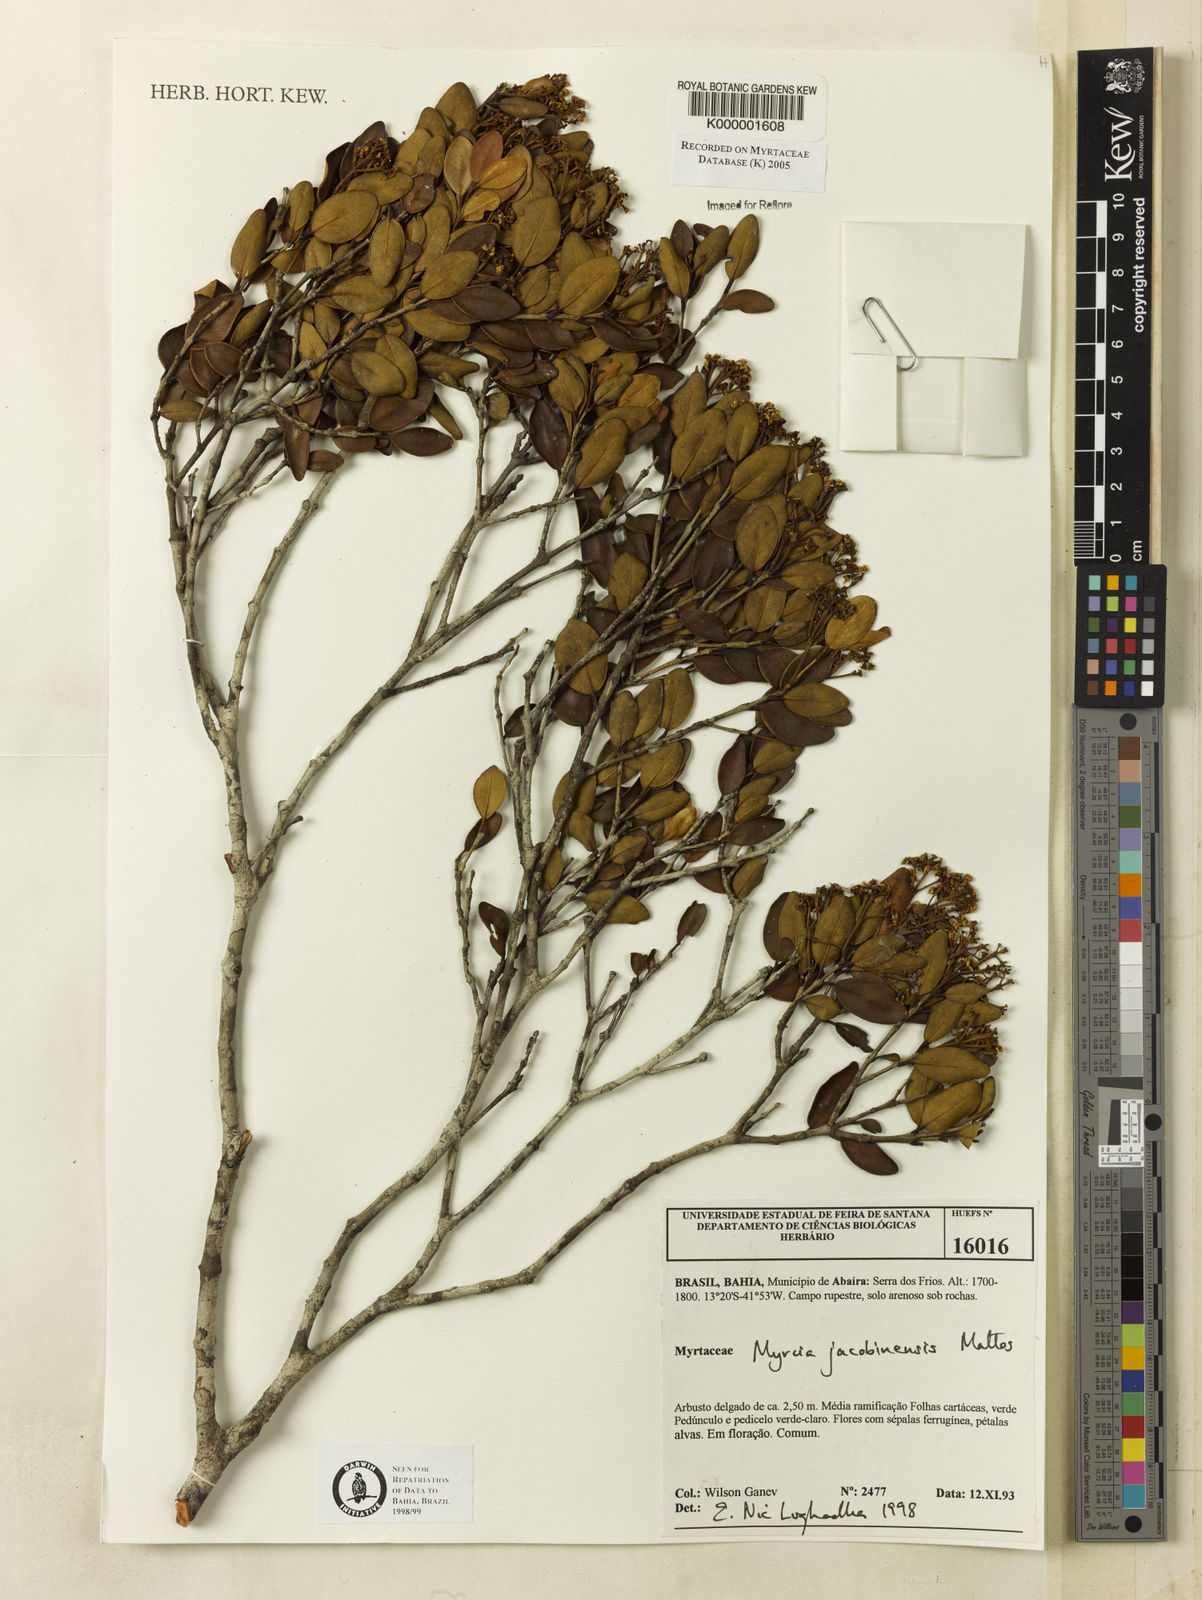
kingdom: Plantae
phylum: Tracheophyta
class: Magnoliopsida
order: Myrtales
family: Myrtaceae
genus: Myrcia
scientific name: Myrcia jacobinensis
